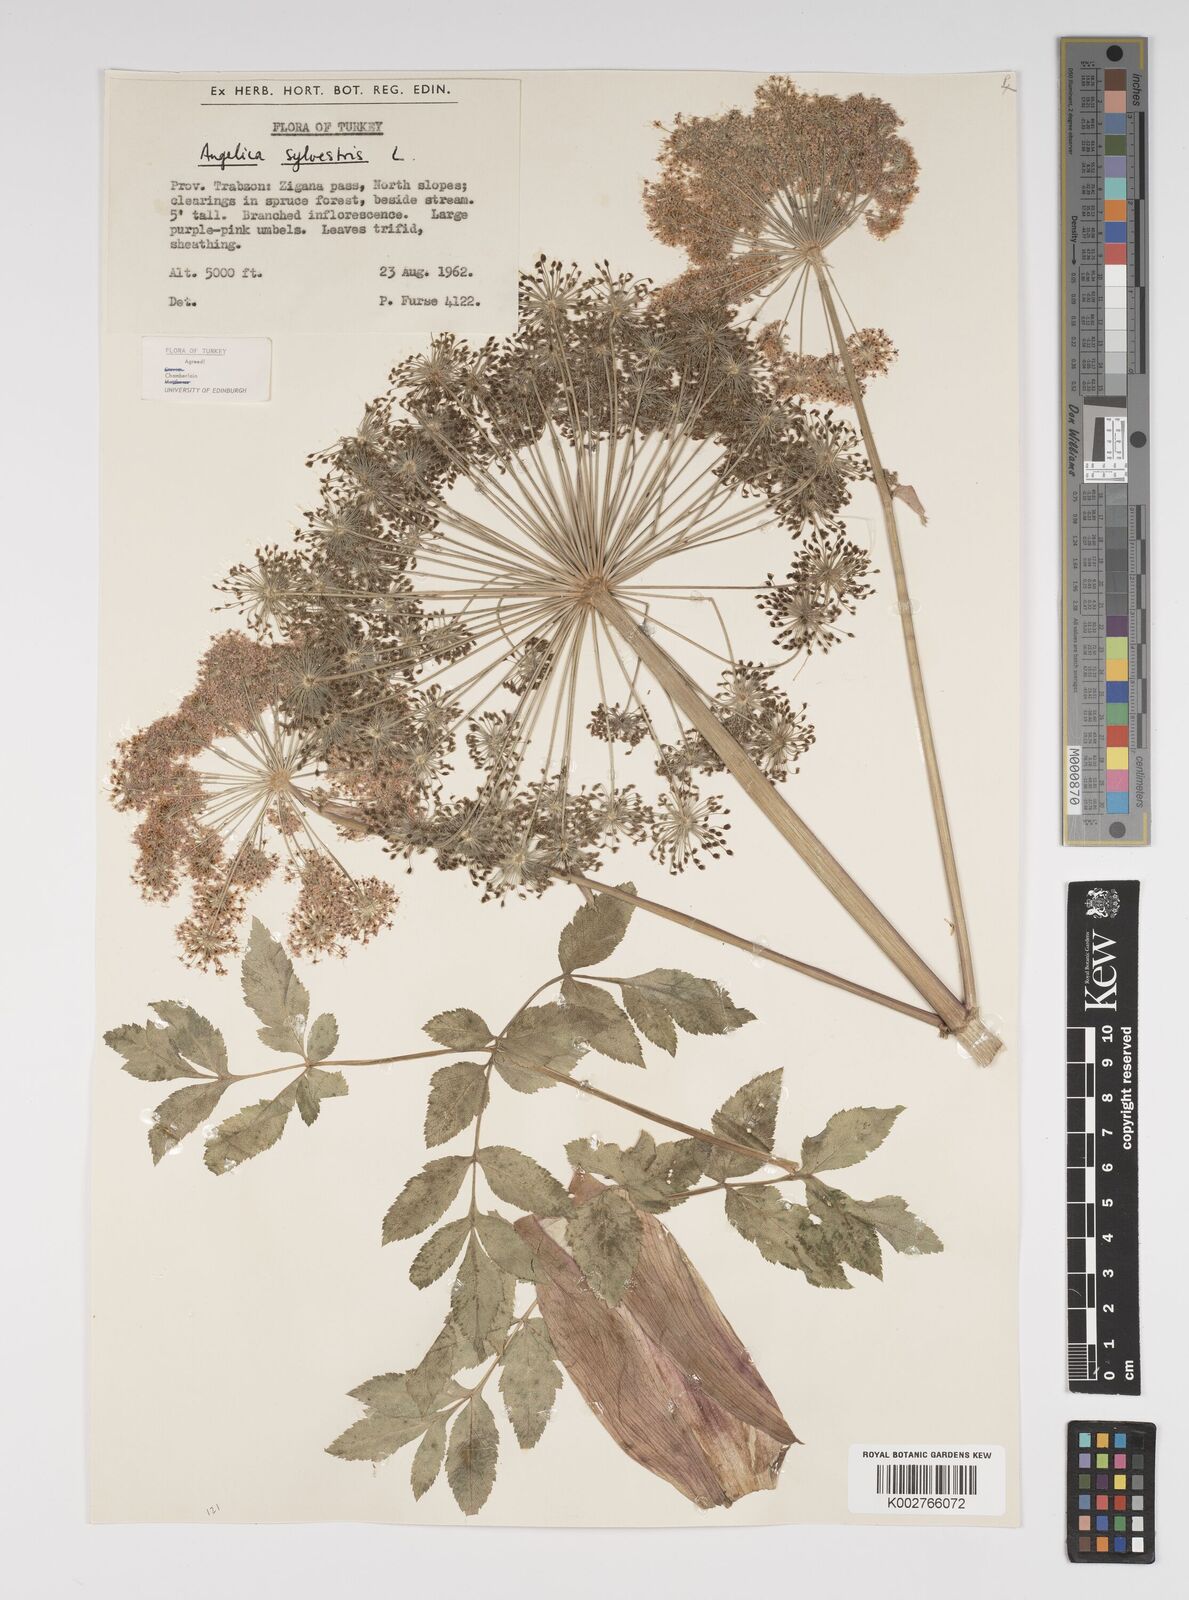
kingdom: Plantae
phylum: Tracheophyta
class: Magnoliopsida
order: Apiales
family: Apiaceae
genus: Angelica
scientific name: Angelica sylvestris
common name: Wild angelica
